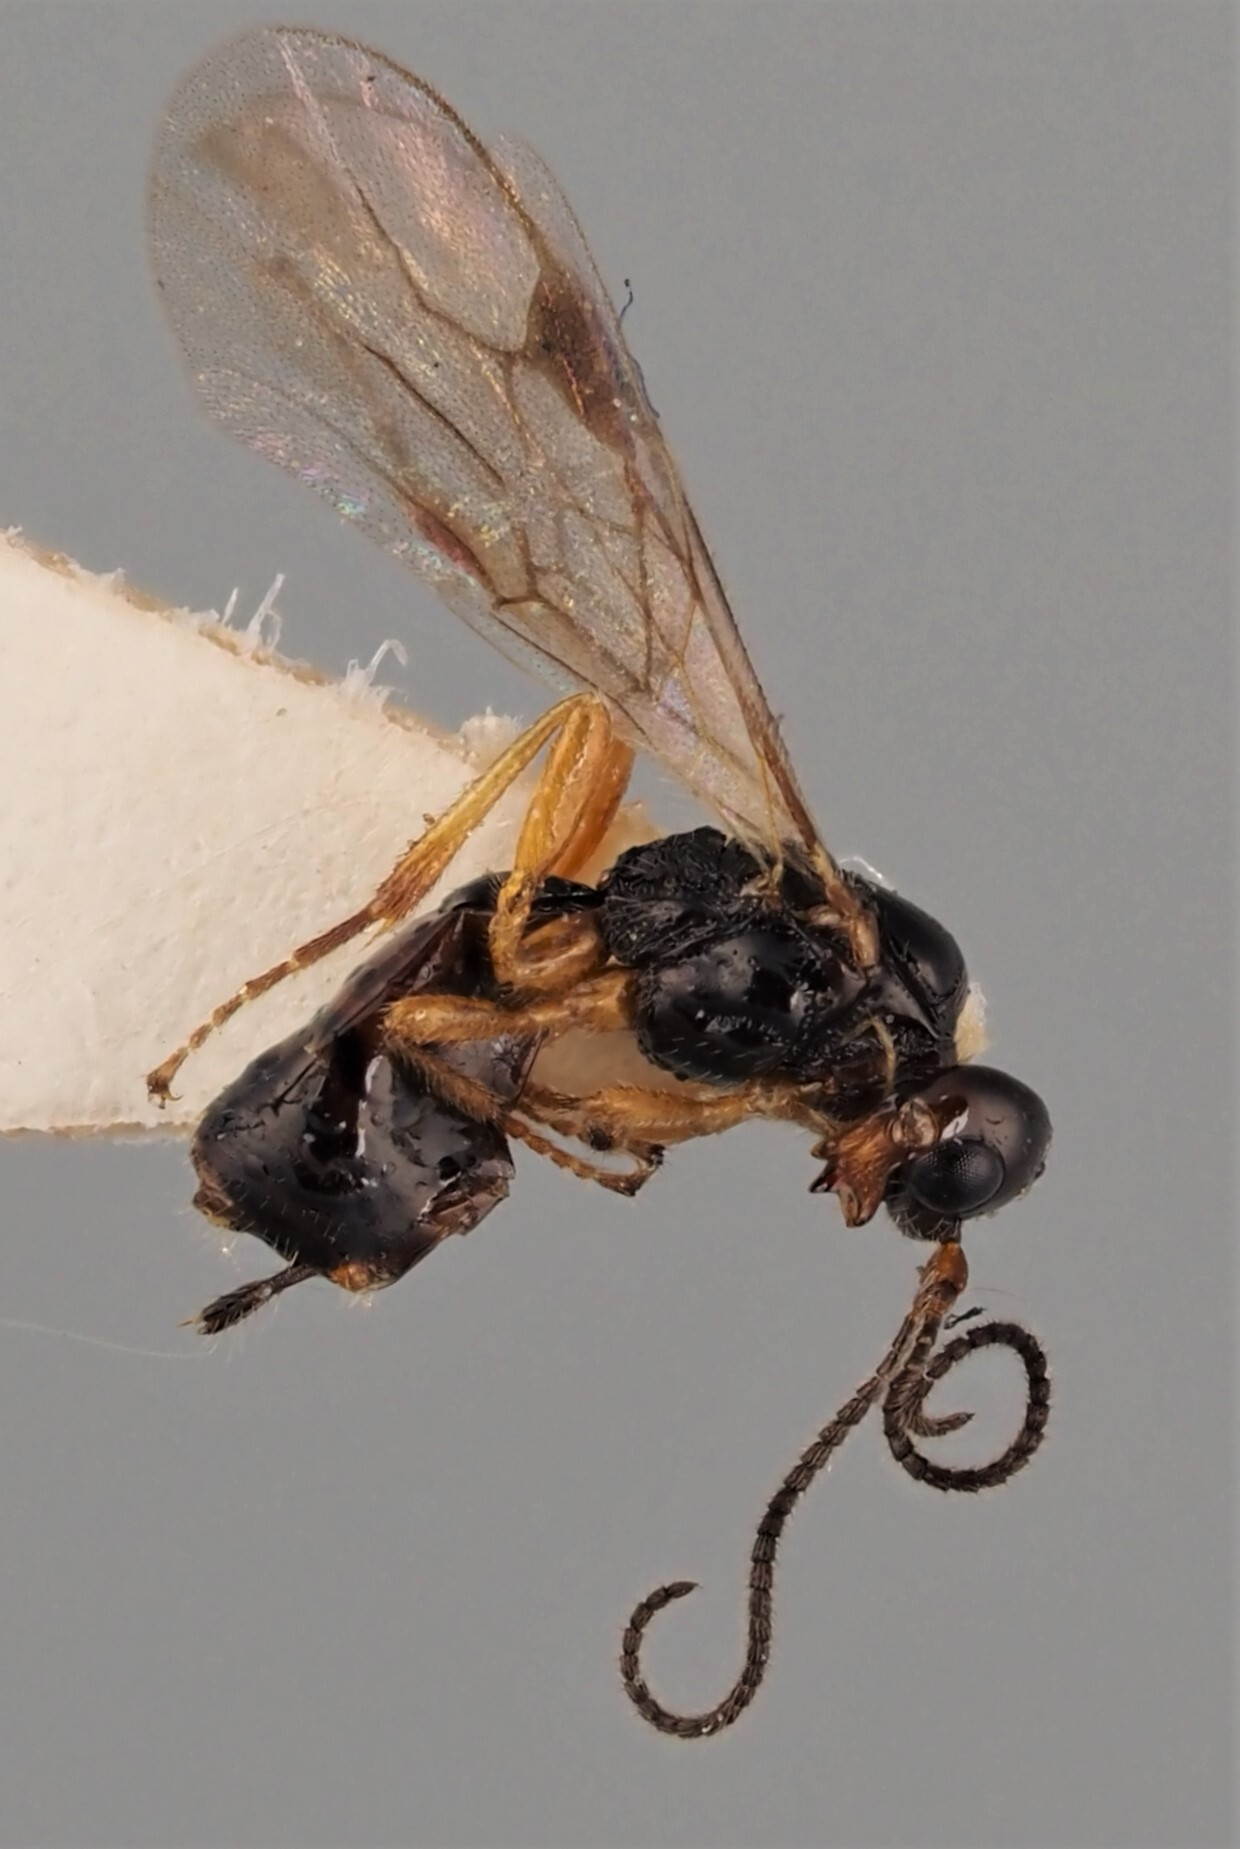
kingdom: Animalia
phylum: Arthropoda
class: Insecta
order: Hymenoptera
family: Braconidae
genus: Alysia
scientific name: Alysia manducator
